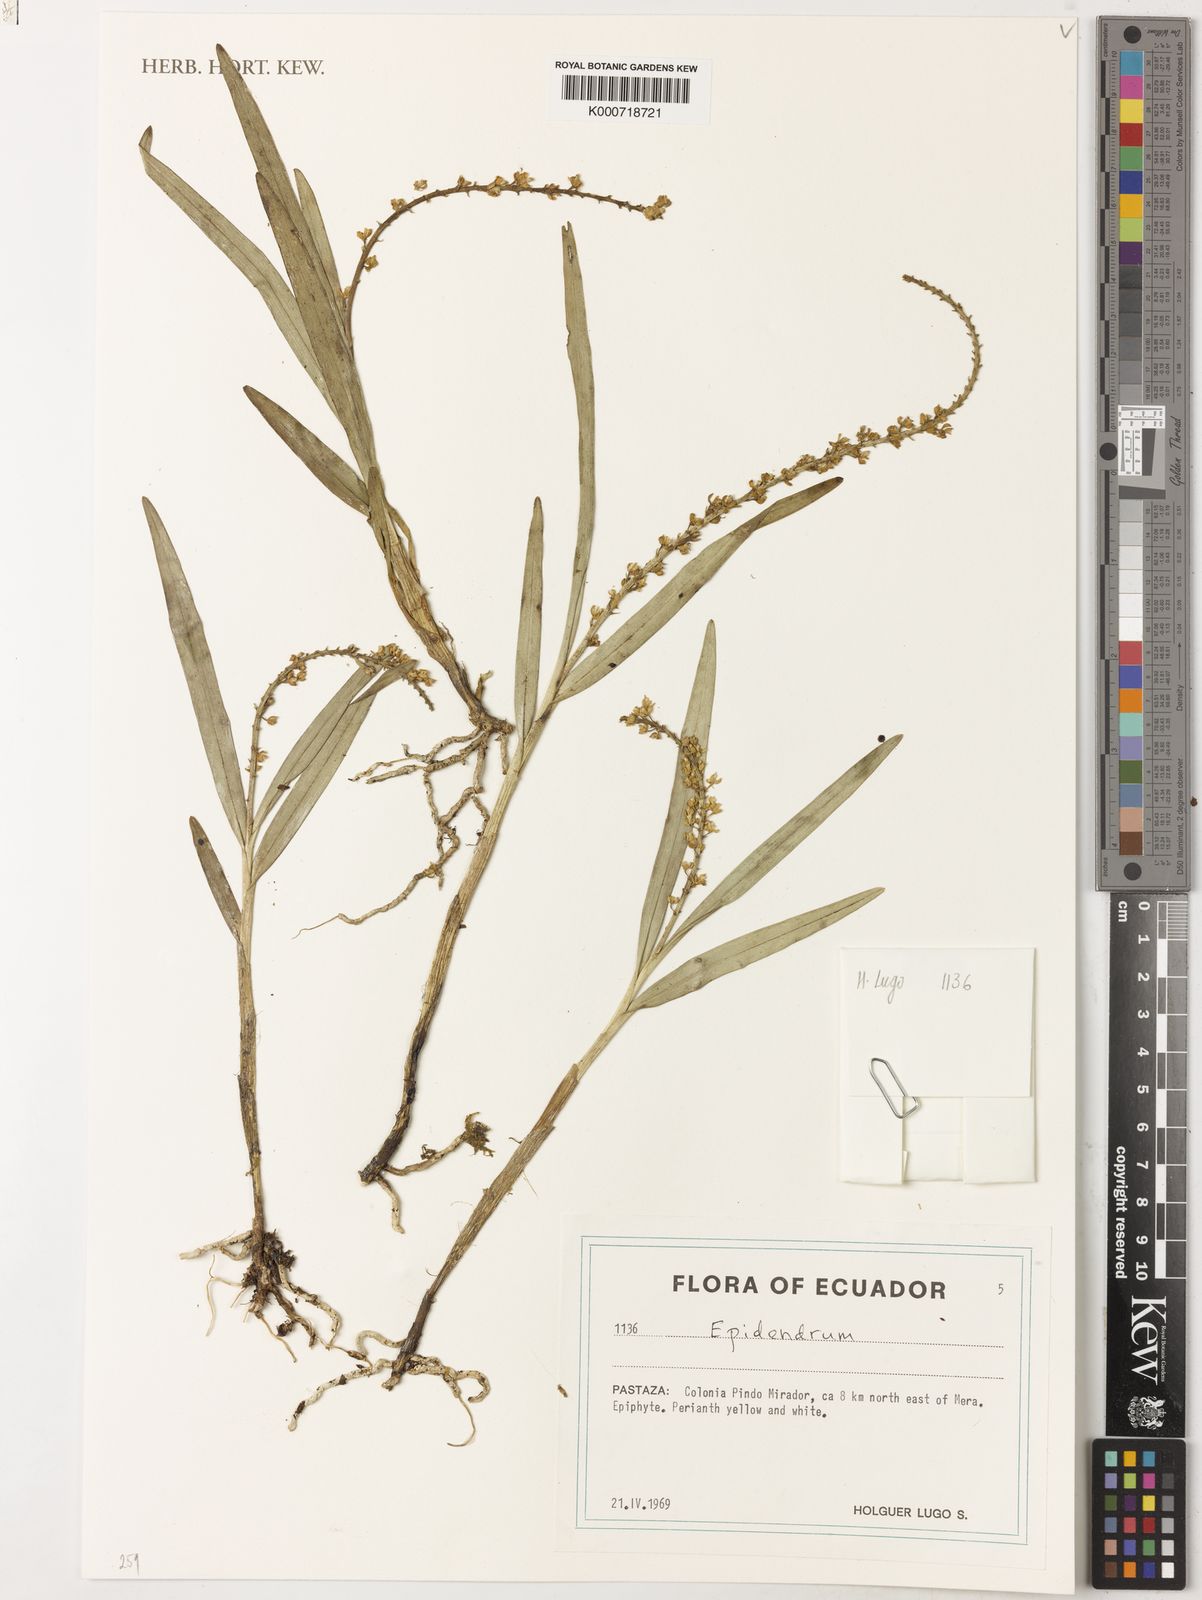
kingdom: Plantae
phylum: Tracheophyta
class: Liliopsida
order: Asparagales
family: Orchidaceae
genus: Epidendrum
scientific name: Epidendrum
